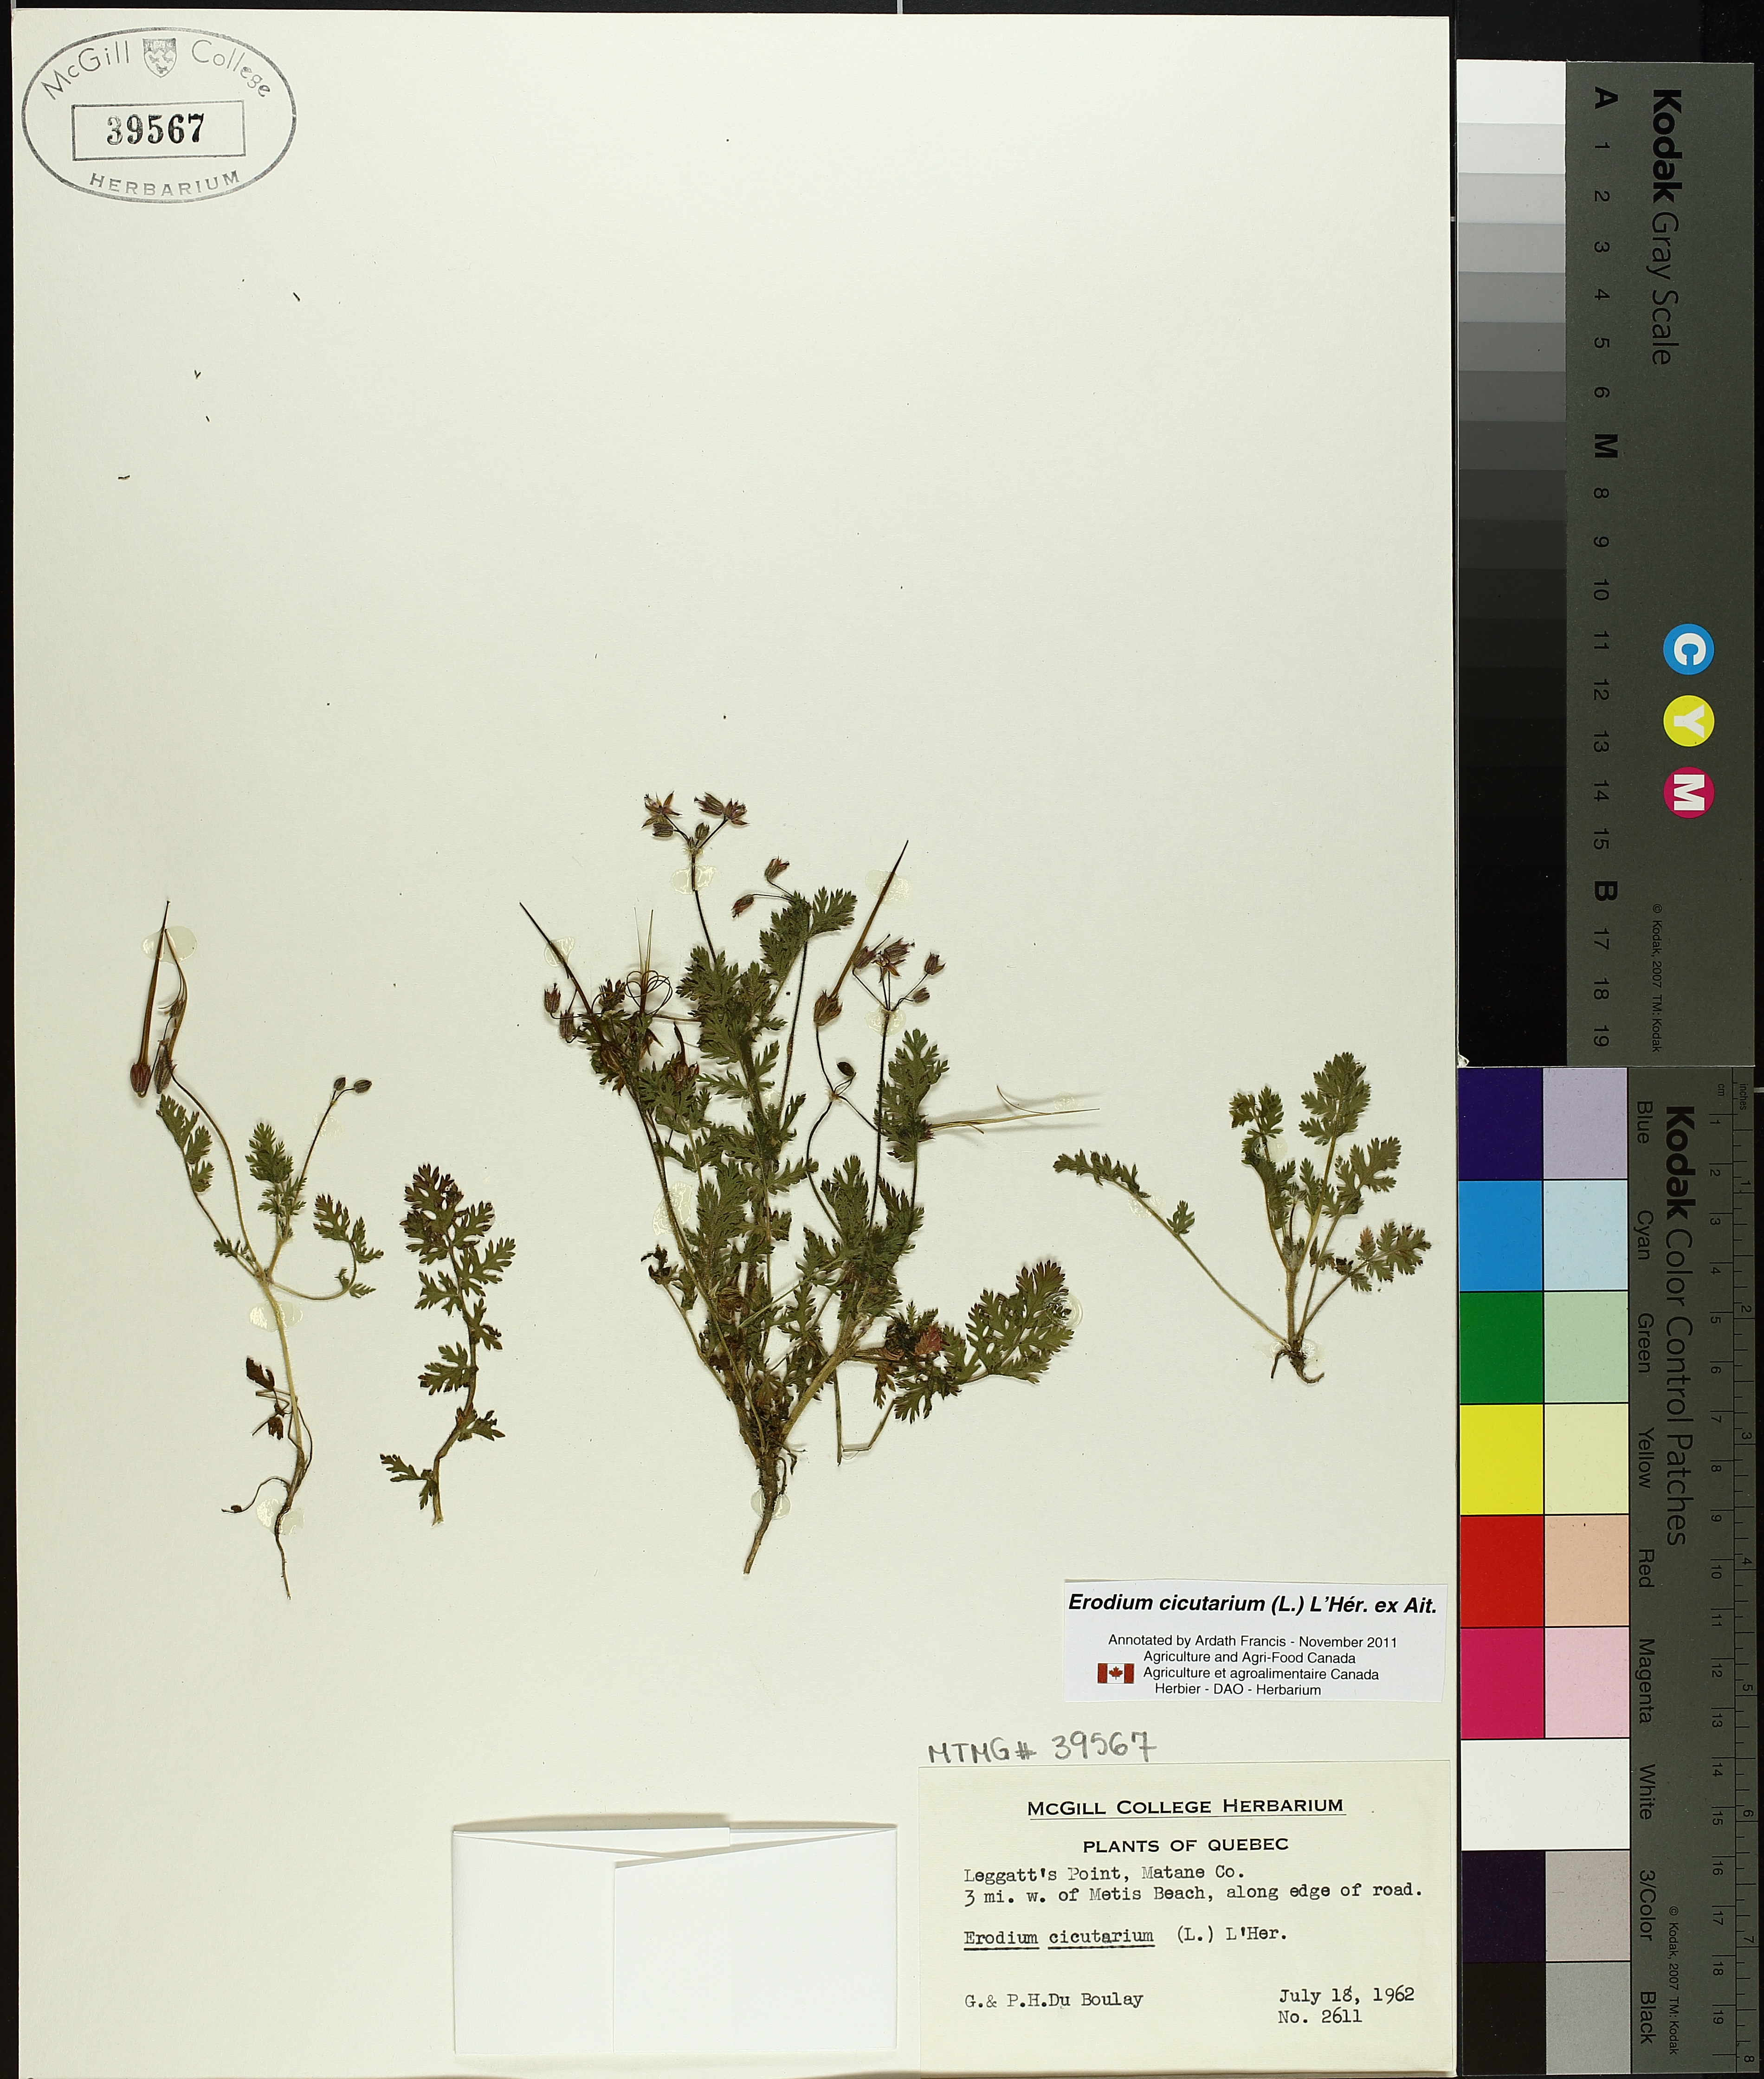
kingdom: Plantae
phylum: Tracheophyta
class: Magnoliopsida
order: Geraniales
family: Geraniaceae
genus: Erodium
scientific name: Erodium cicutarium
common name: Common stork's-bill
